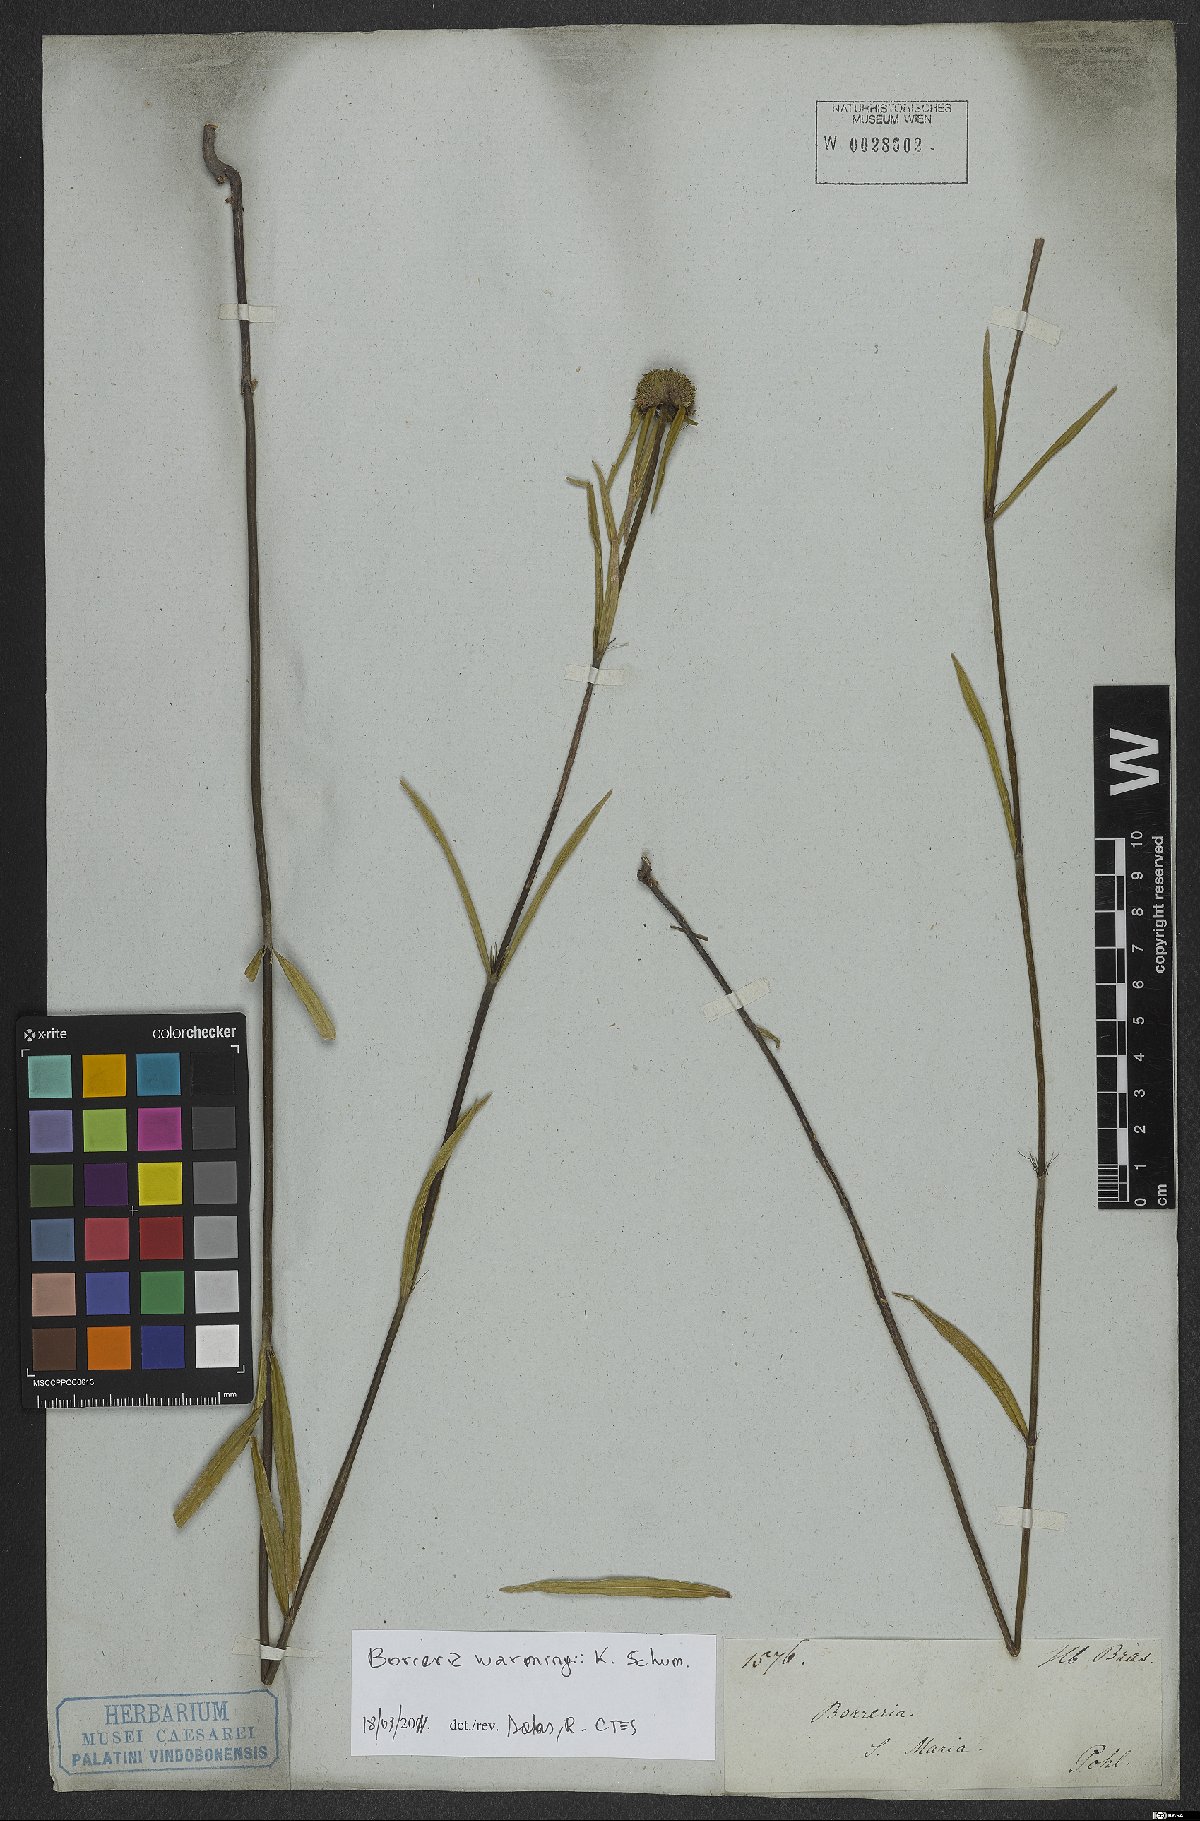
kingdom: Plantae
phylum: Tracheophyta
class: Magnoliopsida
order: Gentianales
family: Rubiaceae
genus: Spermacoce
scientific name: Spermacoce warmingii
